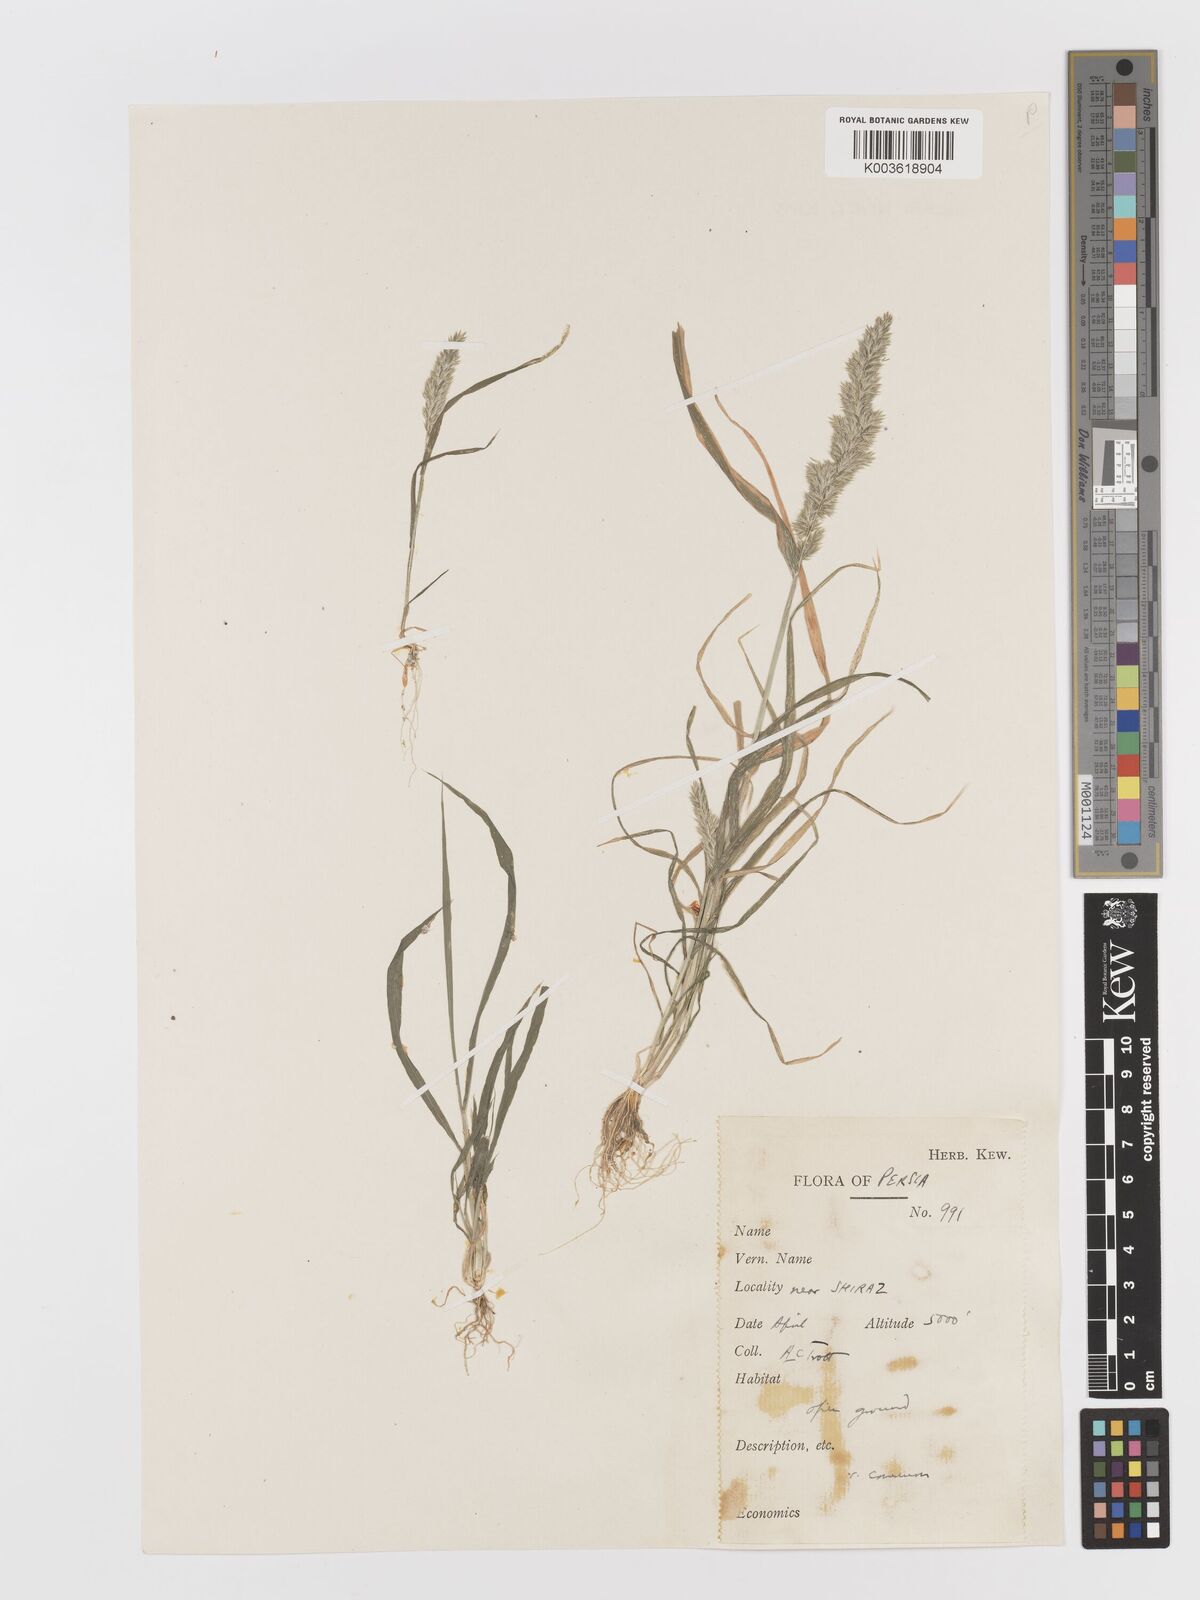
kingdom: Plantae
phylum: Tracheophyta
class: Liliopsida
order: Poales
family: Poaceae
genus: Rostraria
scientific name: Rostraria cristata
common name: Mediterranean hair-grass
